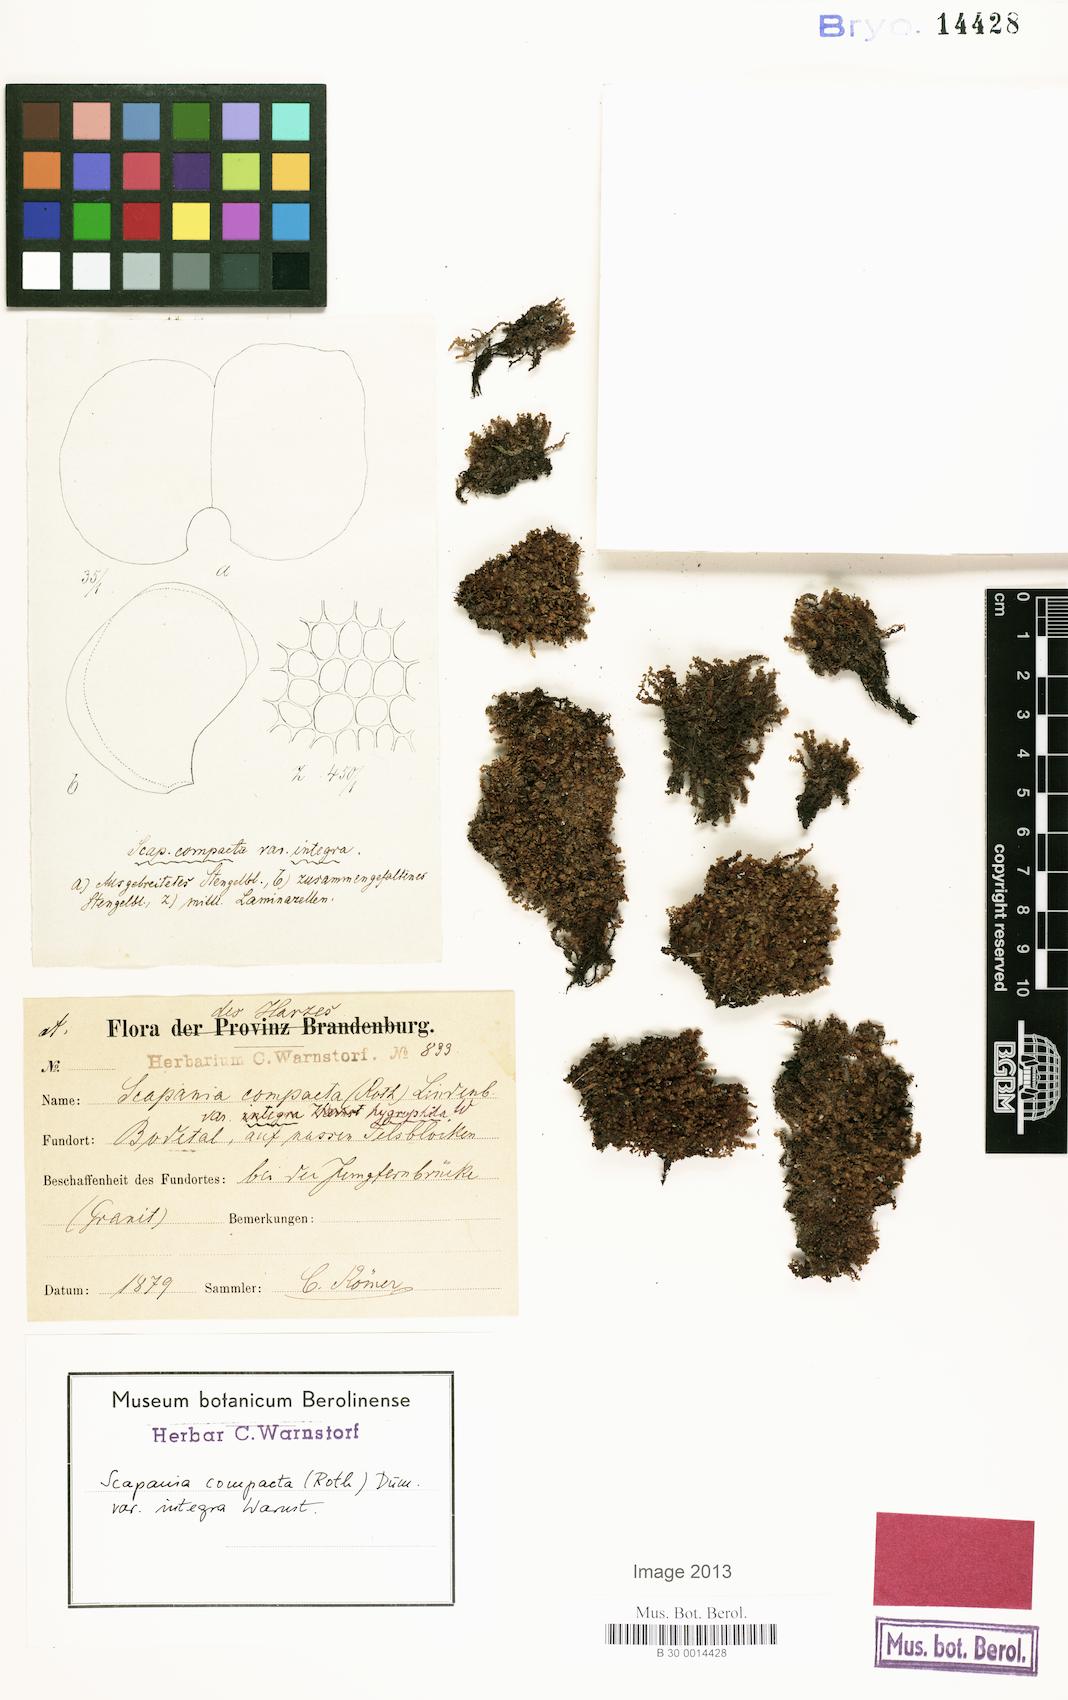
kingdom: Plantae
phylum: Marchantiophyta
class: Jungermanniopsida
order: Jungermanniales
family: Scapaniaceae
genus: Scapania
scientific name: Scapania compacta
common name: Thick-set earwort
